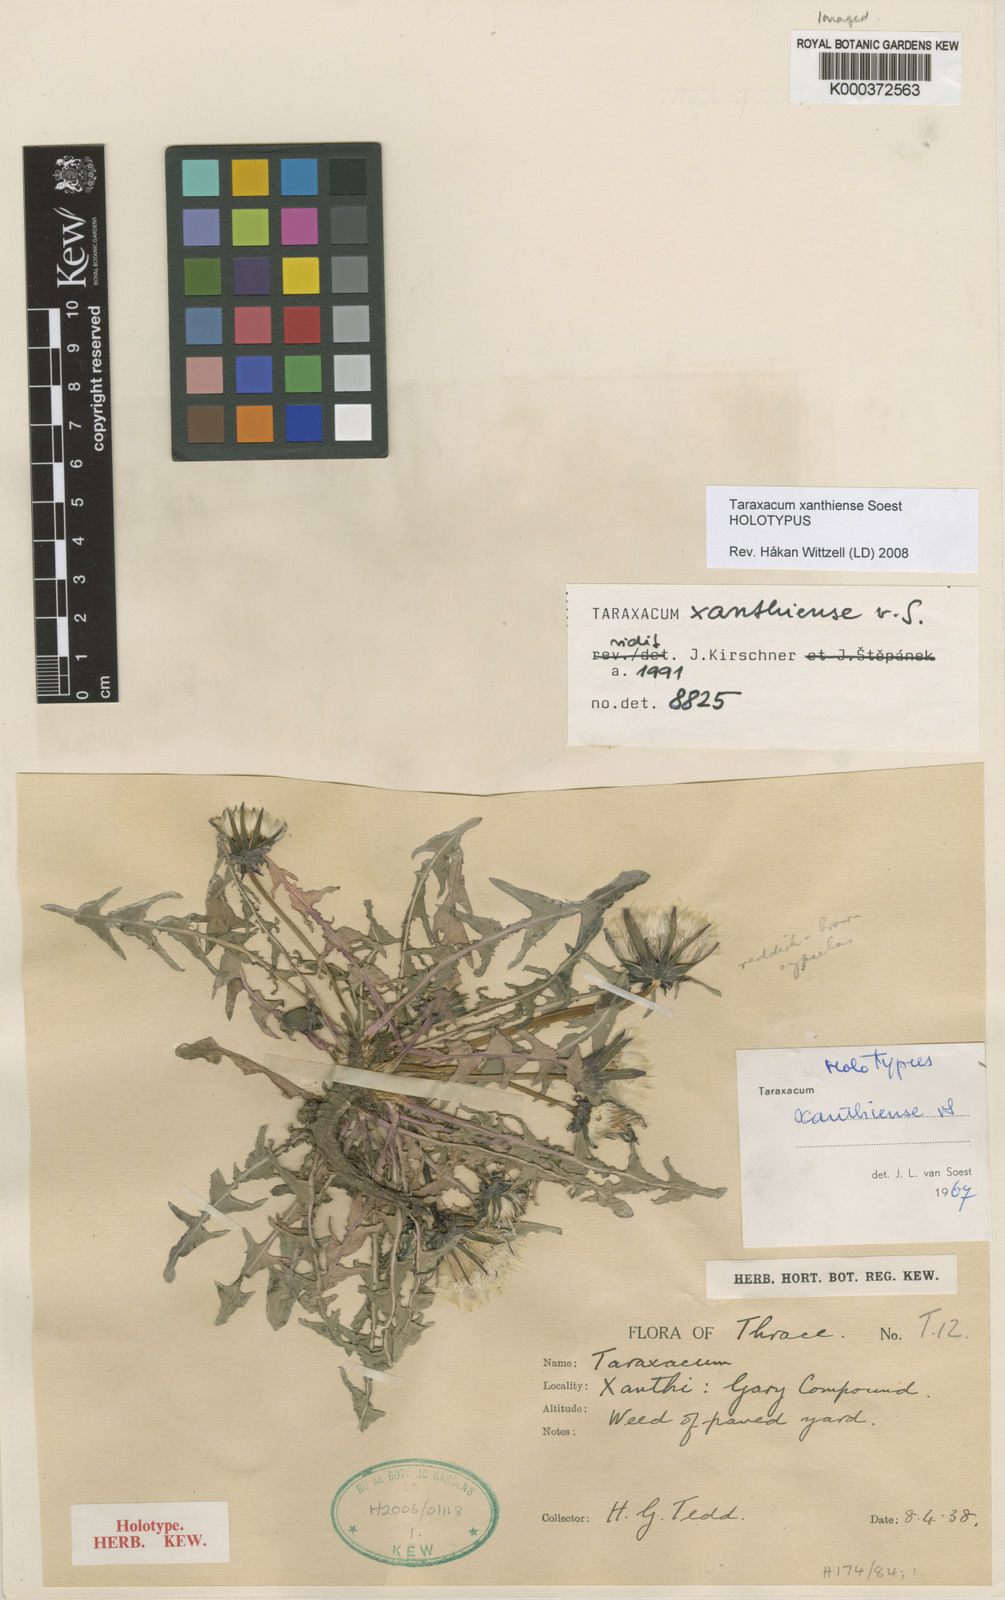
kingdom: Plantae
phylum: Tracheophyta
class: Magnoliopsida
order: Asterales
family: Asteraceae
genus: Taraxacum
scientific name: Taraxacum xanthiense
